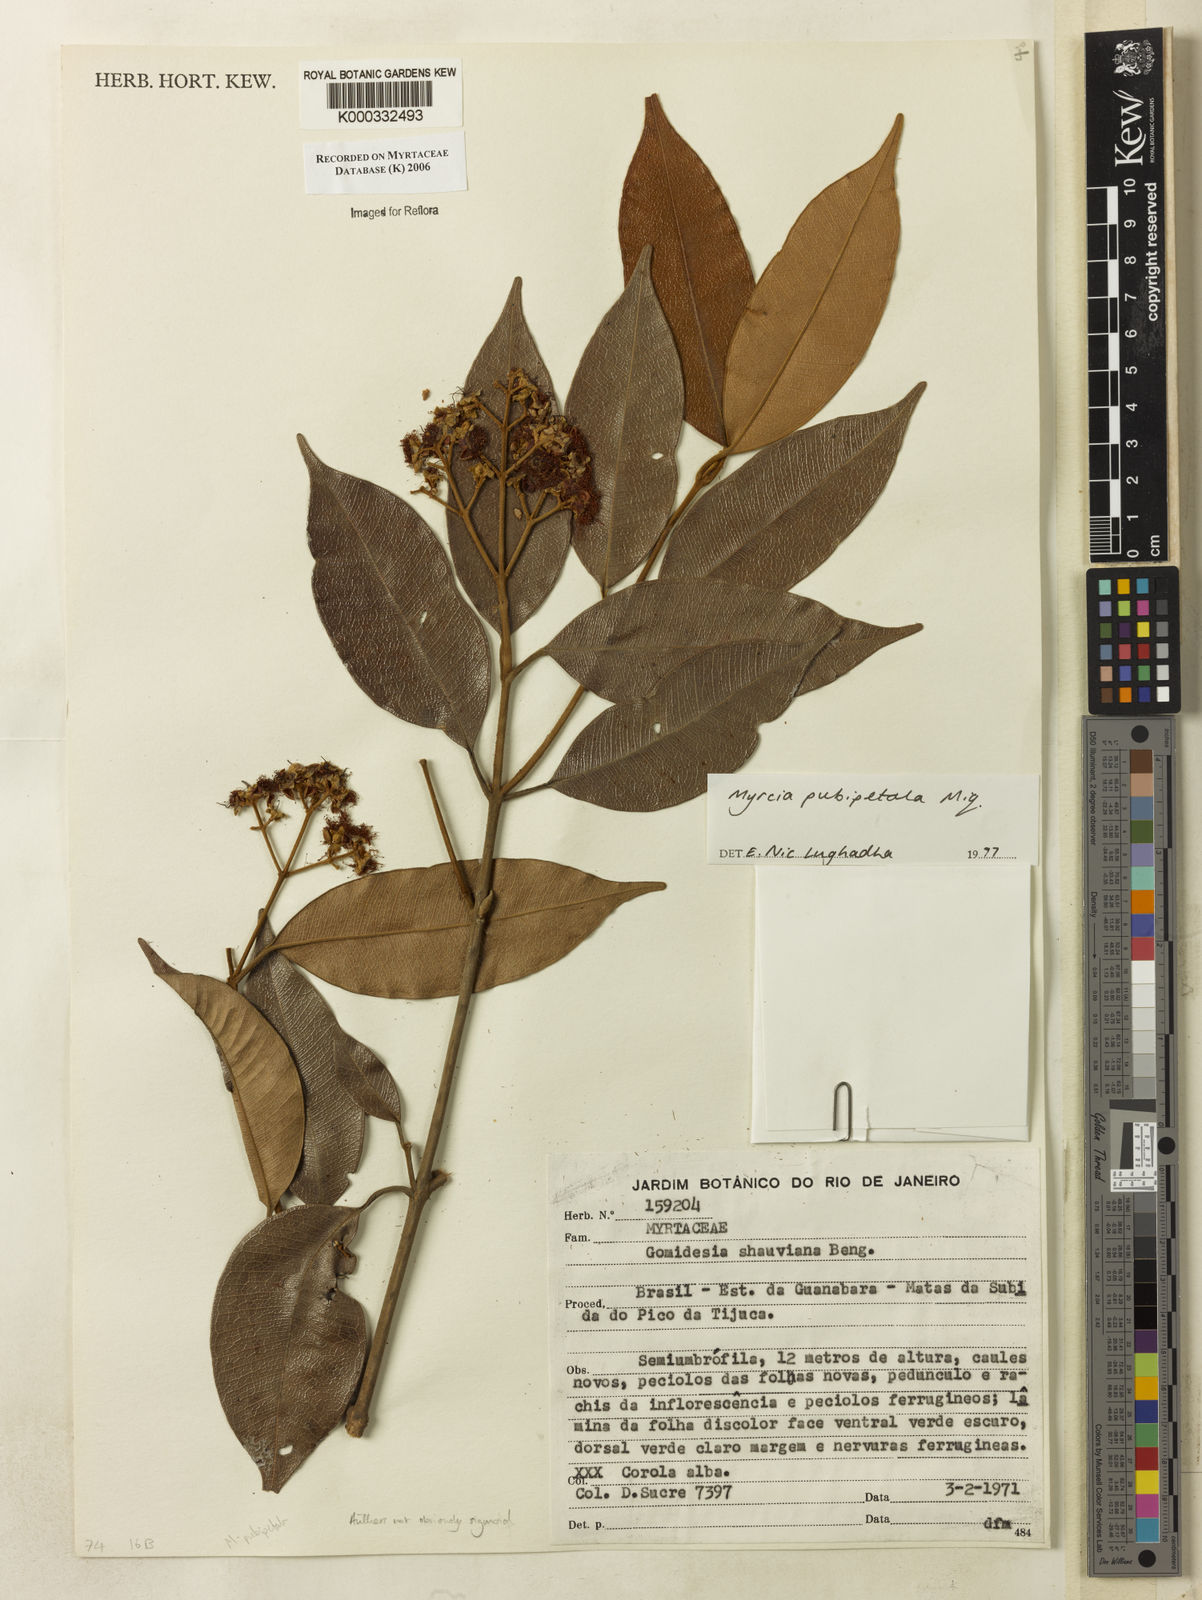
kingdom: Plantae
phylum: Tracheophyta
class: Magnoliopsida
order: Myrtales
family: Myrtaceae
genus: Myrcia
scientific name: Myrcia pubipetala
